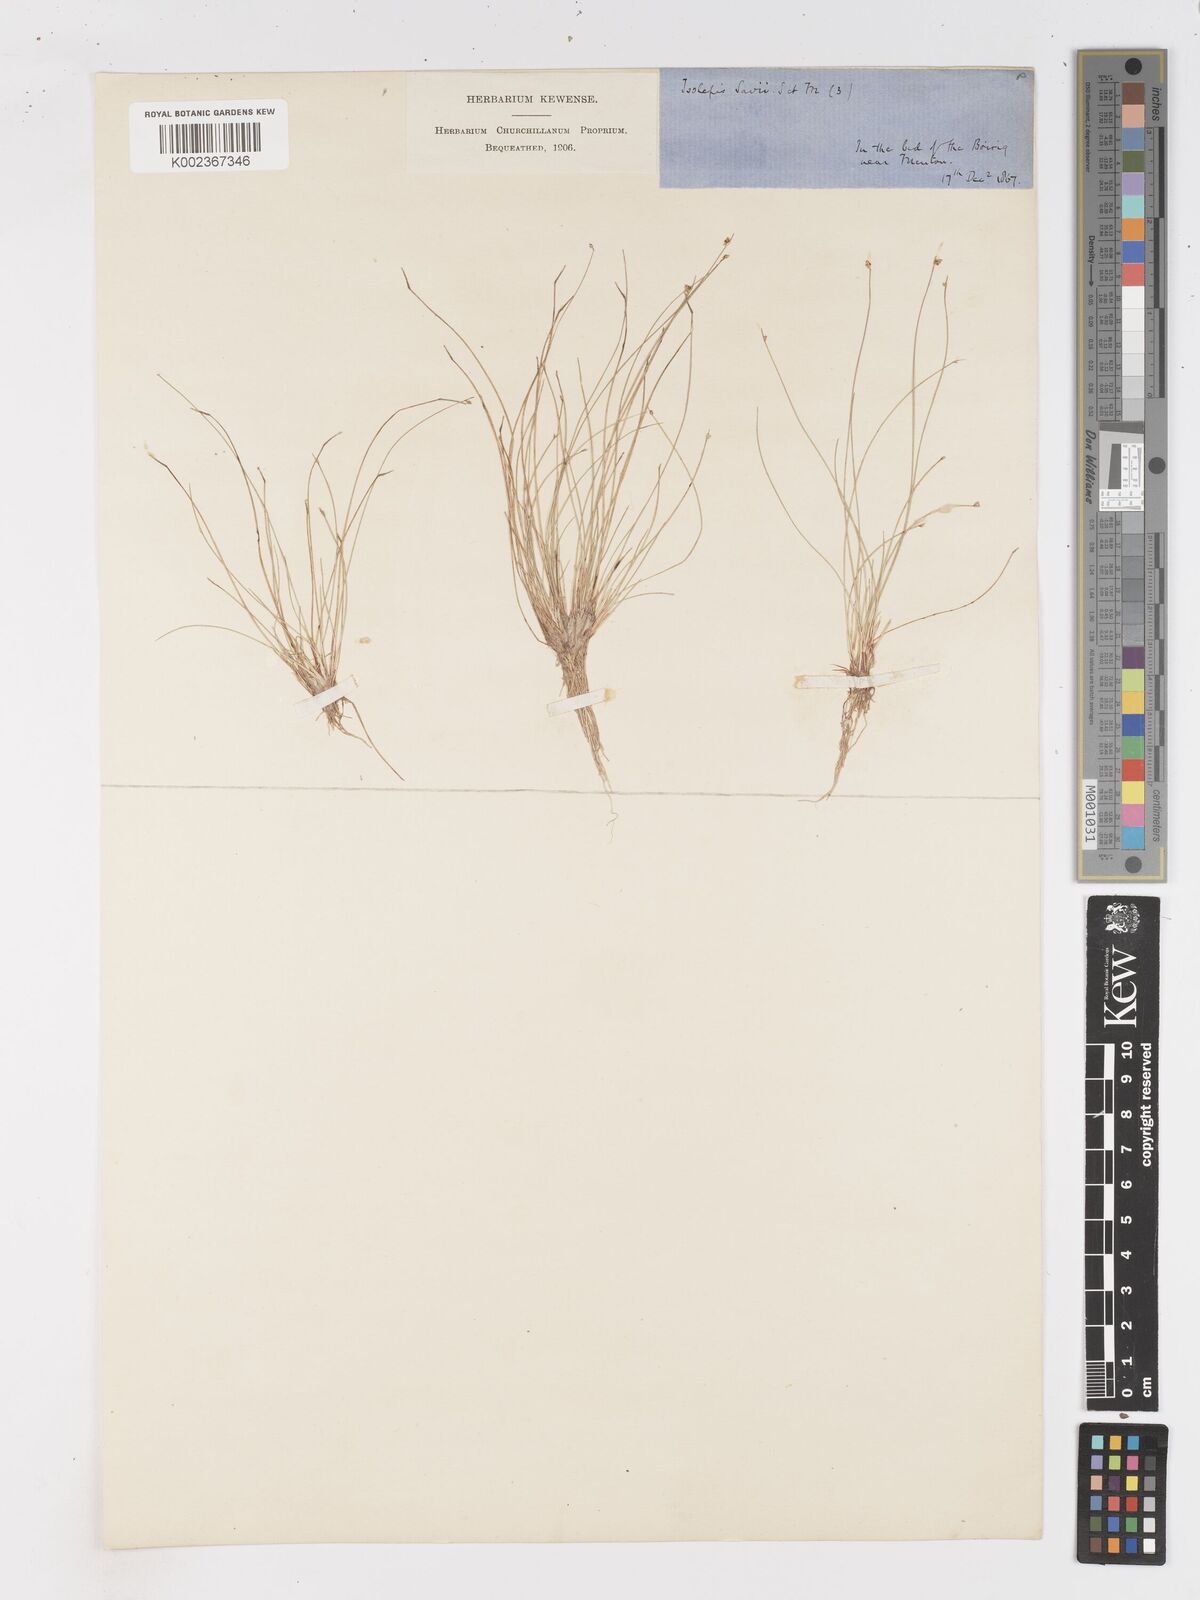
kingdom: Plantae
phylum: Tracheophyta
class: Liliopsida
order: Poales
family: Cyperaceae
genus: Isolepis
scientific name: Isolepis cernua
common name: Slender club-rush
